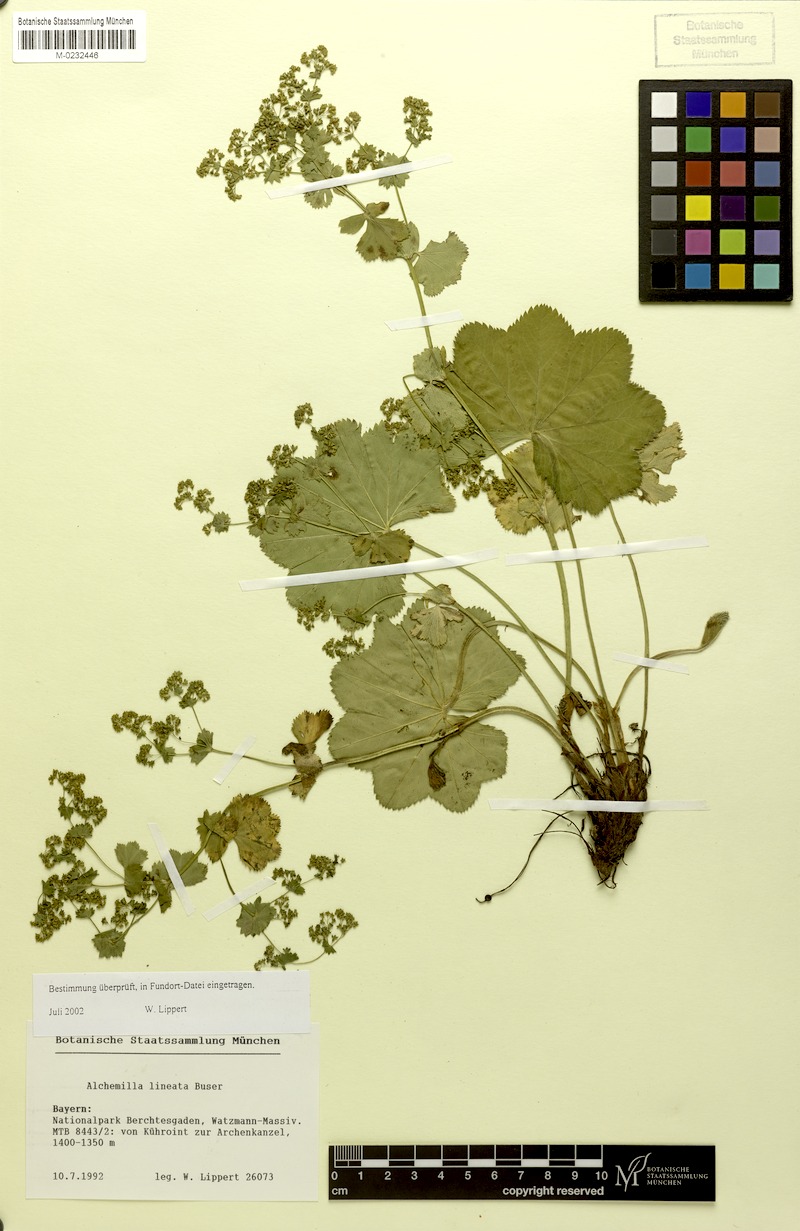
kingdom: Plantae
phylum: Tracheophyta
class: Magnoliopsida
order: Rosales
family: Rosaceae
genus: Alchemilla
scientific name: Alchemilla lineata
